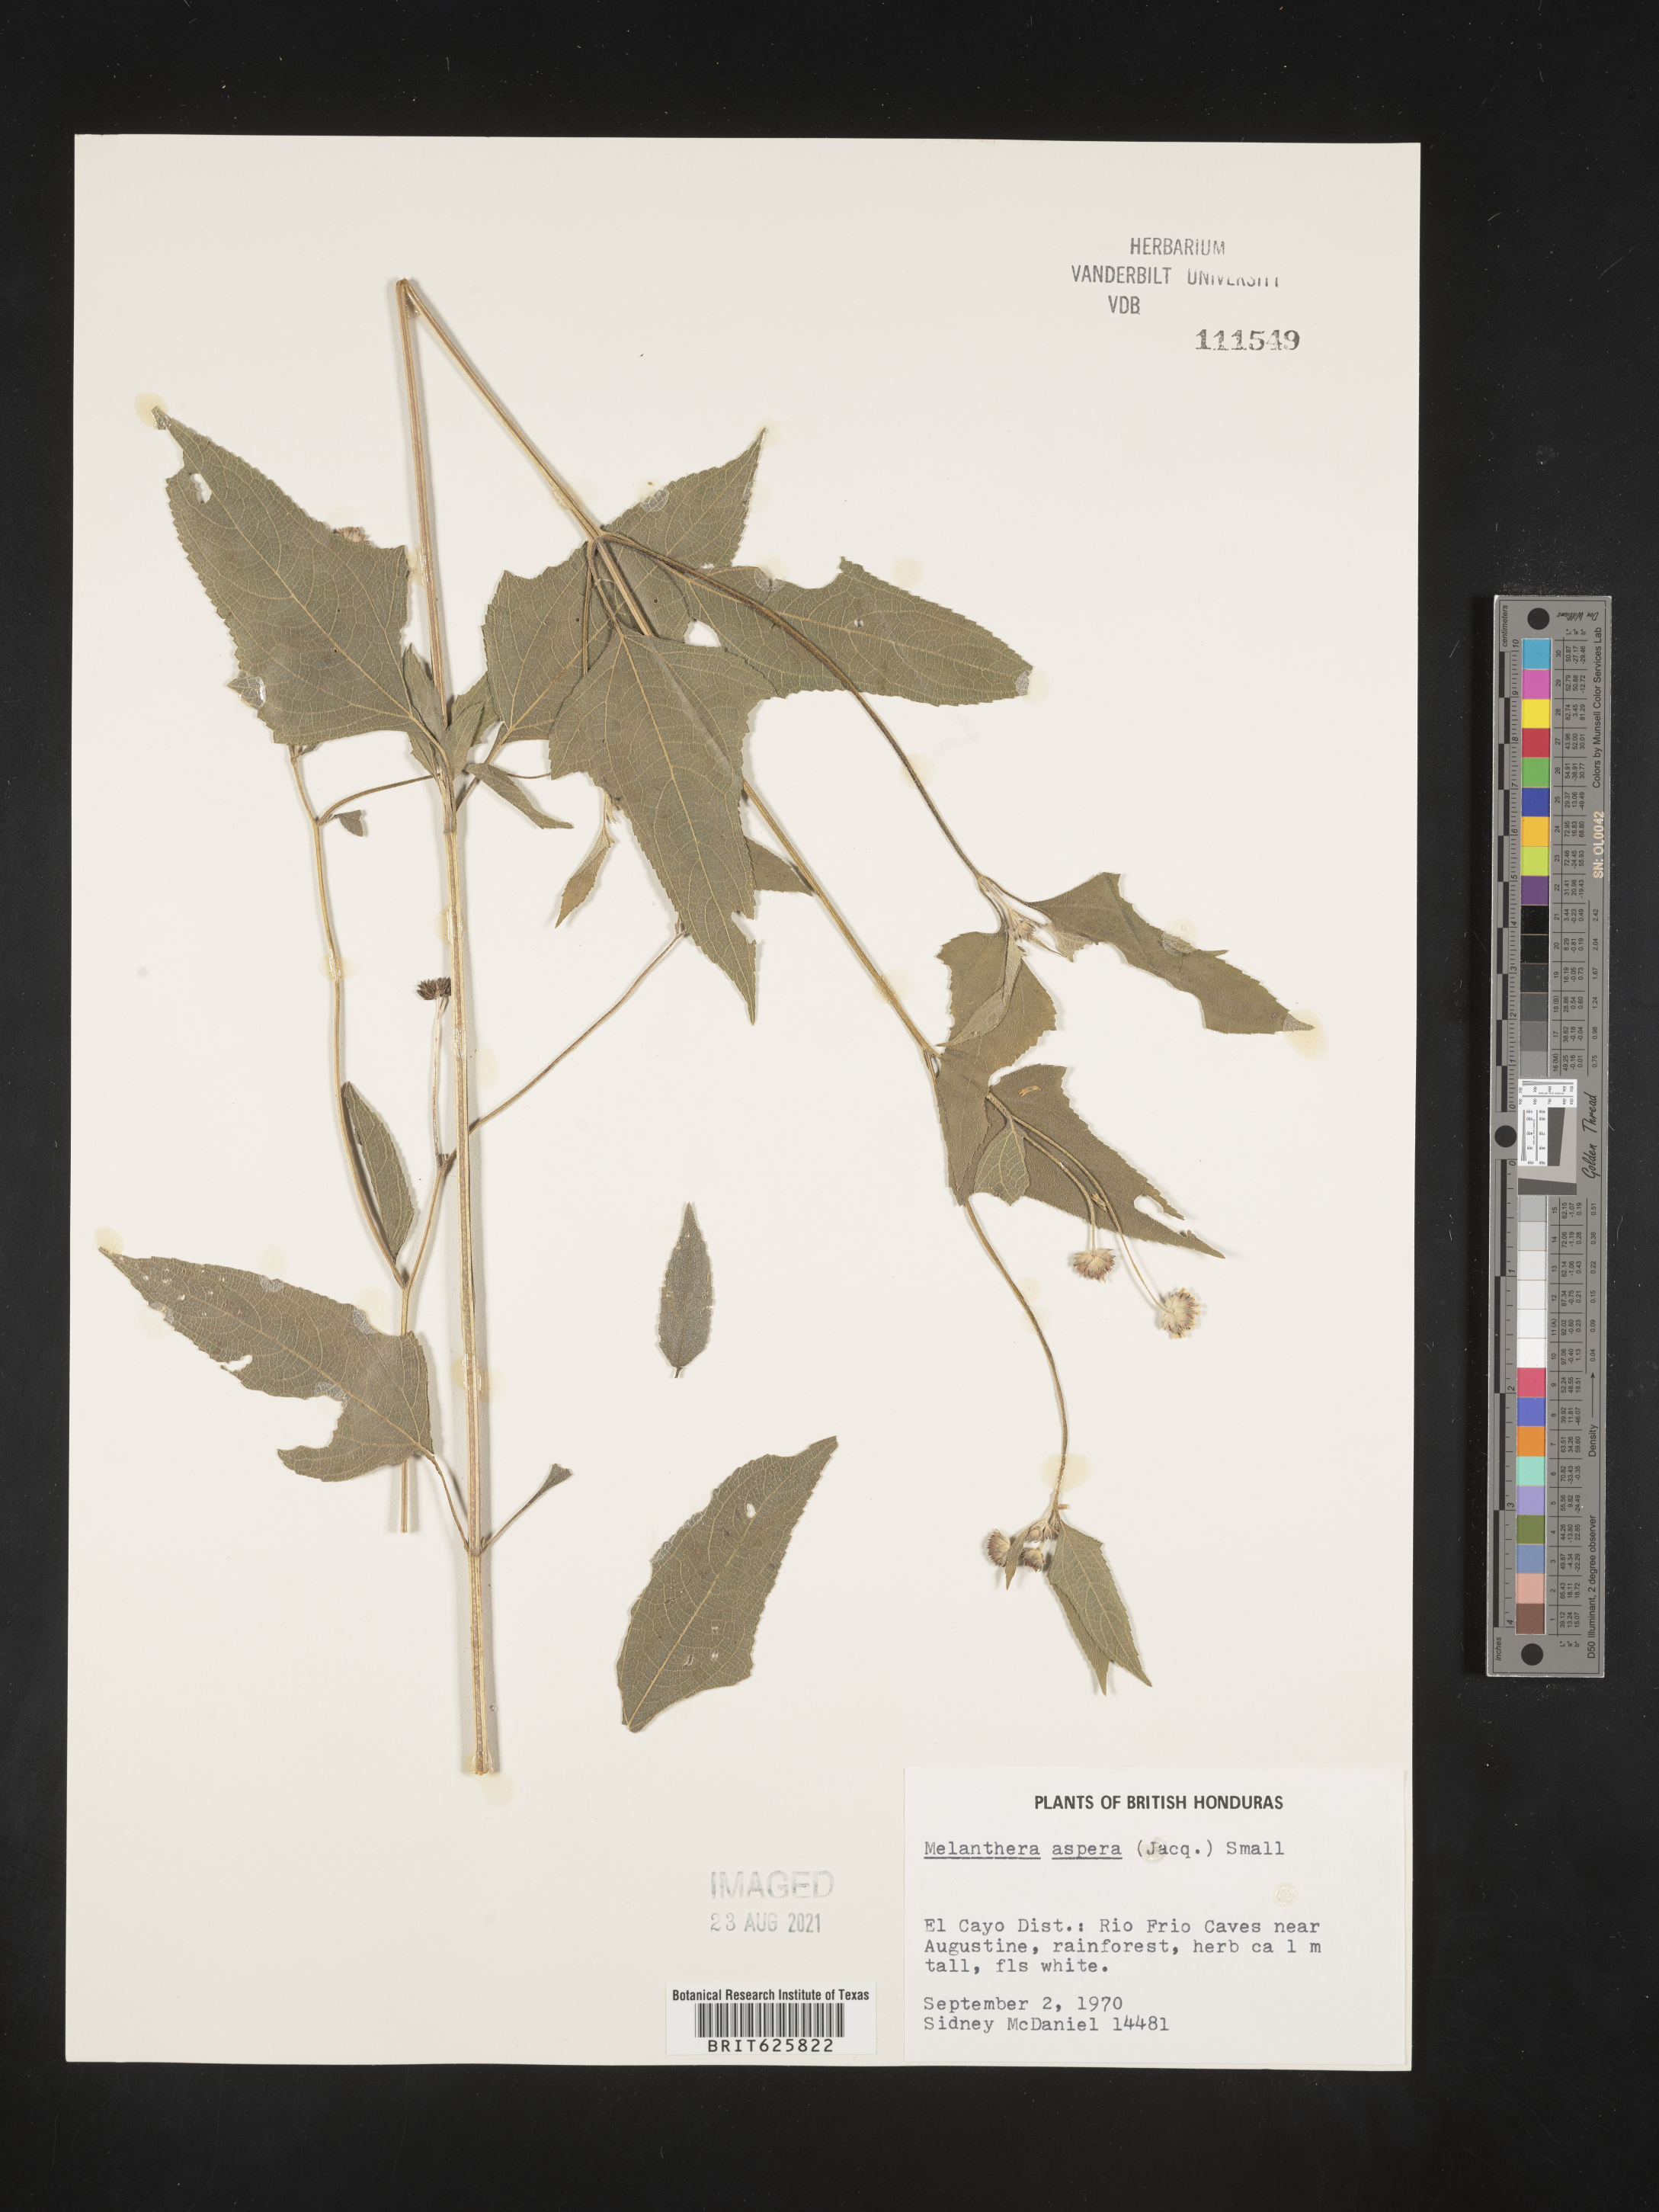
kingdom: Plantae
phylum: Tracheophyta
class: Magnoliopsida
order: Asterales
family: Asteraceae
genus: Melanthera
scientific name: Melanthera nivea
